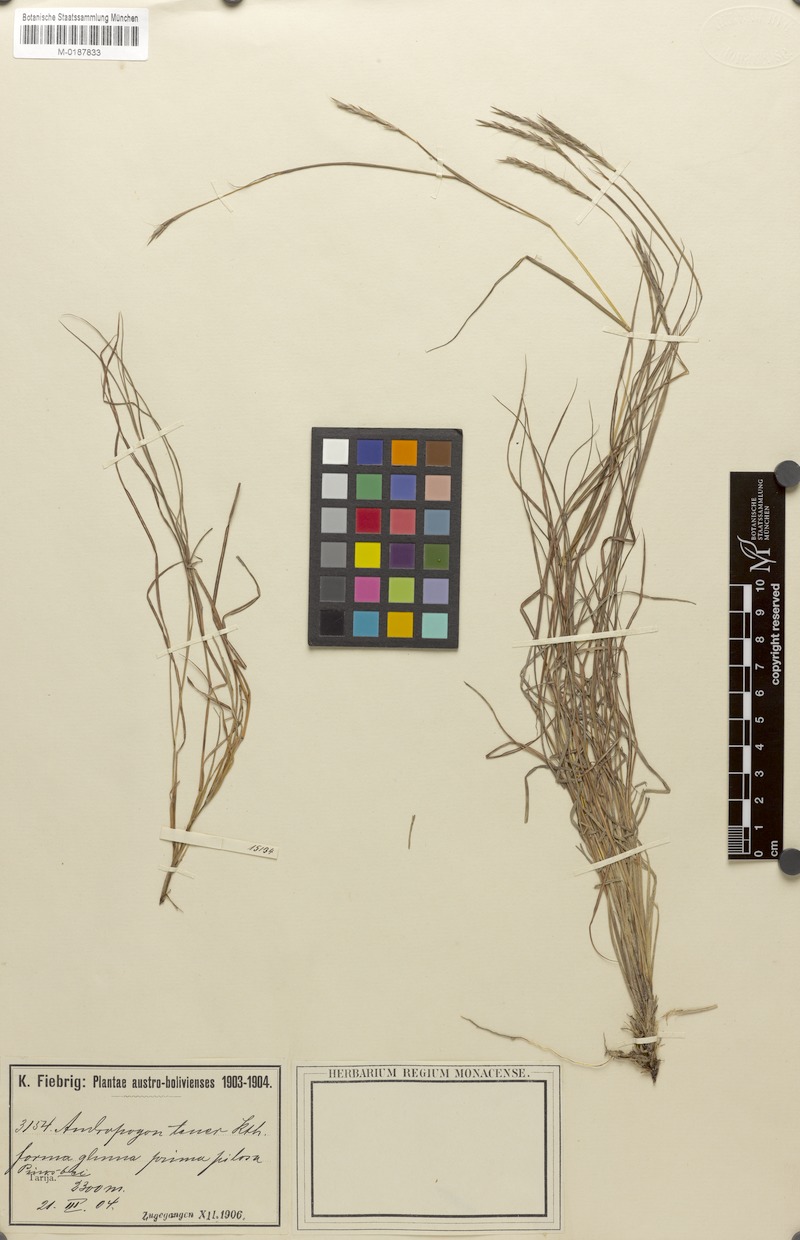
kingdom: Plantae
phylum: Tracheophyta
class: Liliopsida
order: Poales
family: Poaceae
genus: Andropogon
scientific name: Andropogon tener
